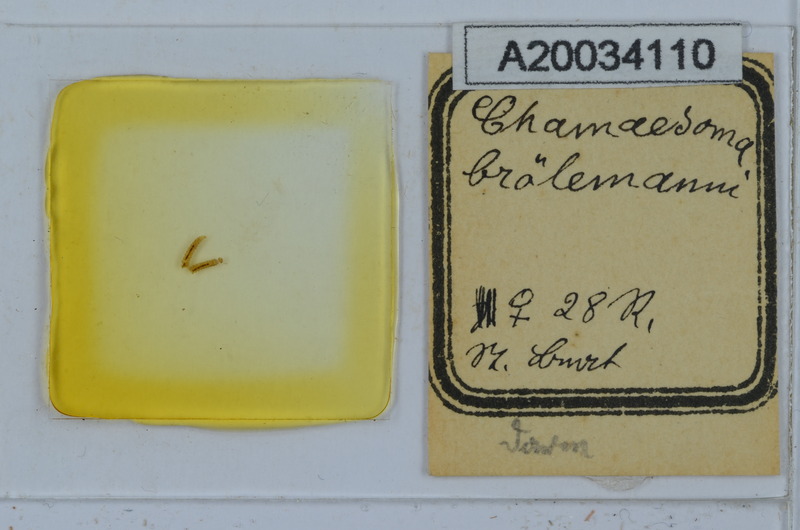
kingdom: Animalia
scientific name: Animalia
